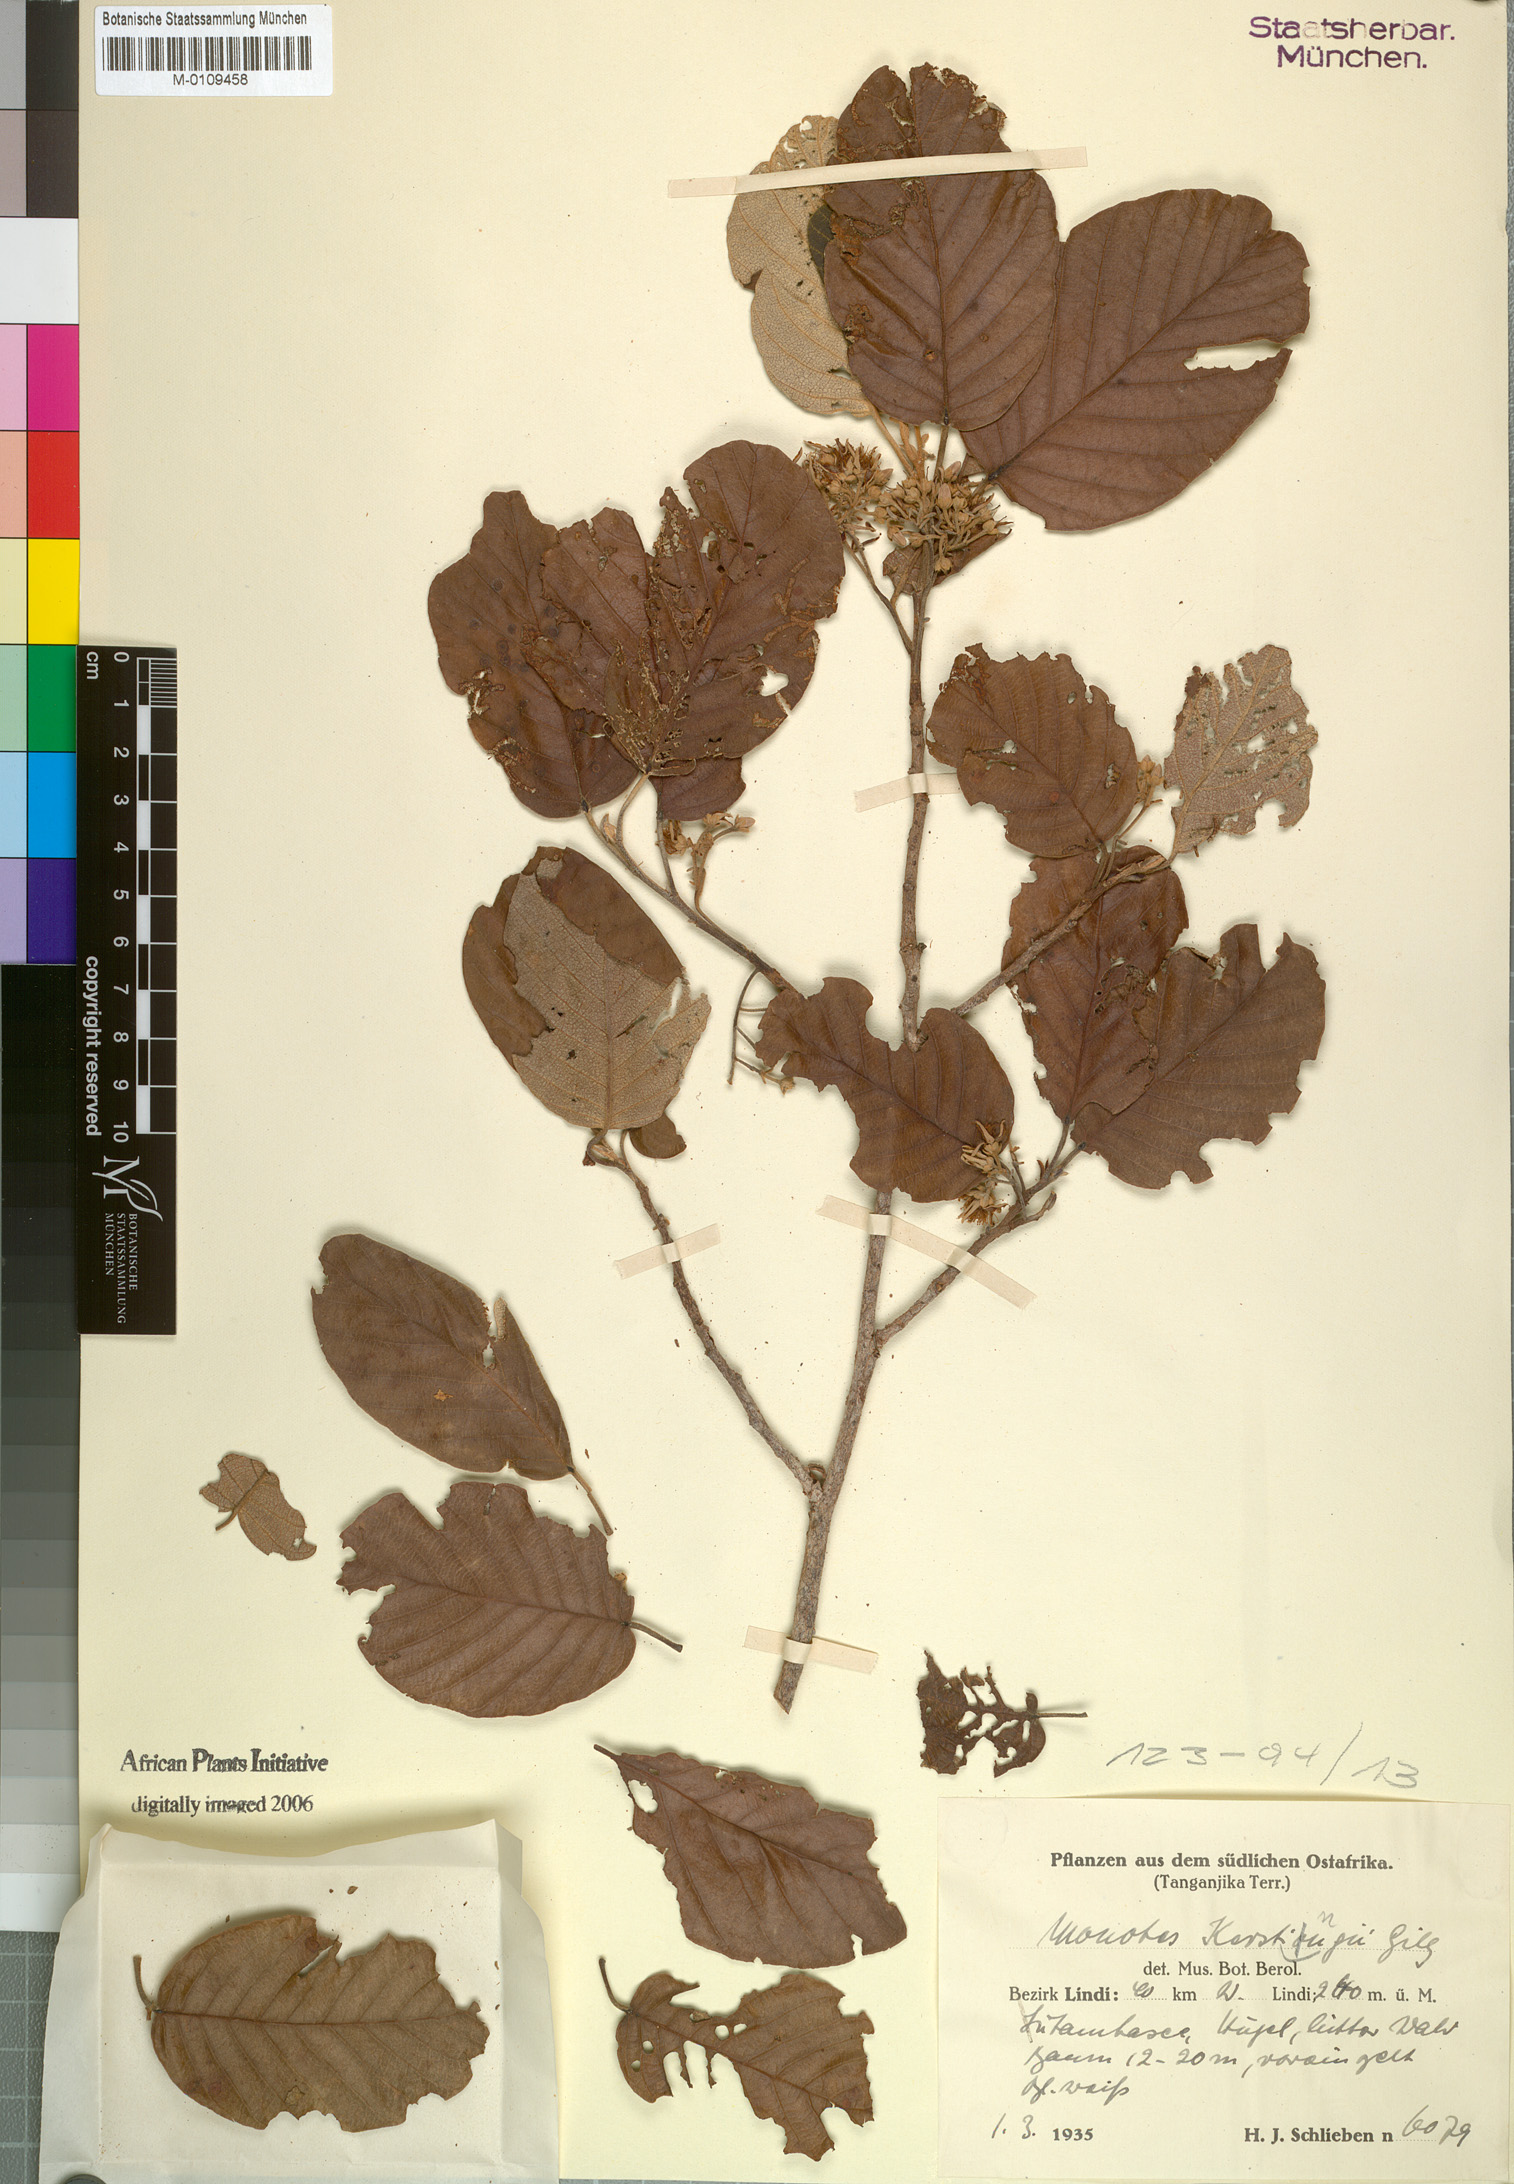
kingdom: Plantae
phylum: Tracheophyta
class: Magnoliopsida
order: Malvales
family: Dipterocarpaceae
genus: Monotes
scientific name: Monotes lutambensis
